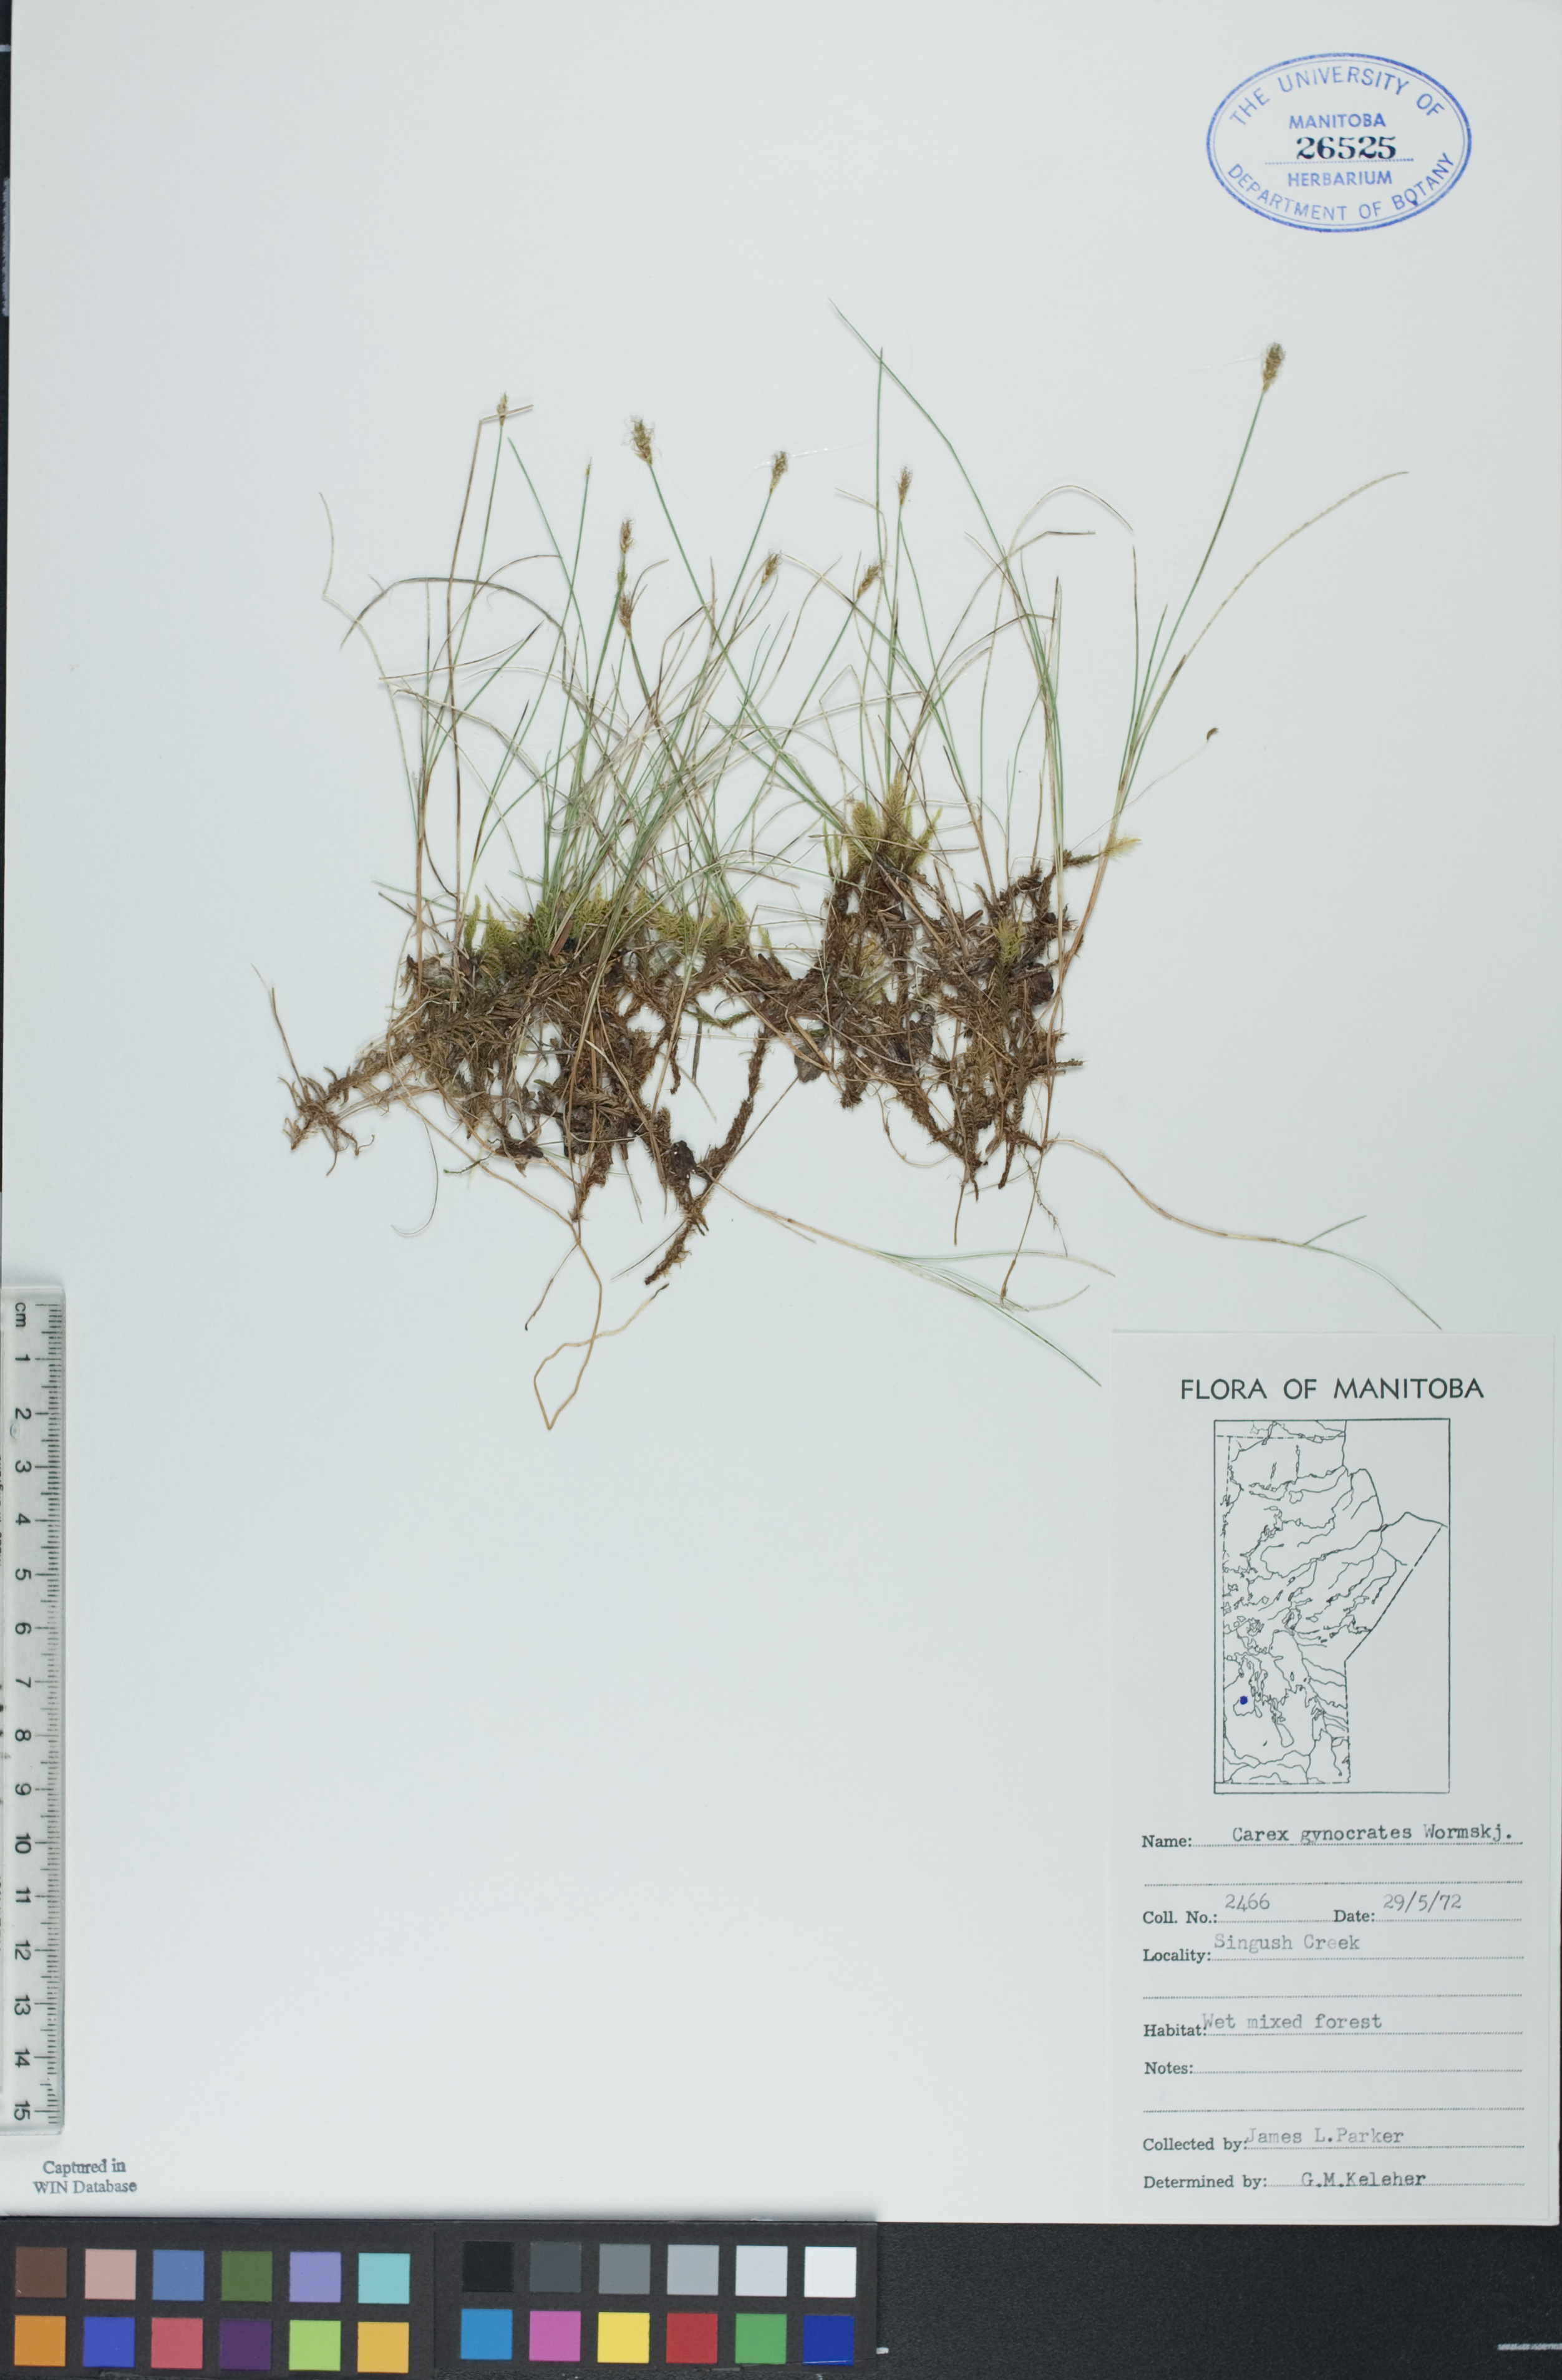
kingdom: Plantae
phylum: Tracheophyta
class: Liliopsida
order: Poales
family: Cyperaceae
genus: Carex
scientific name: Carex nardina
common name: Nard sedge
